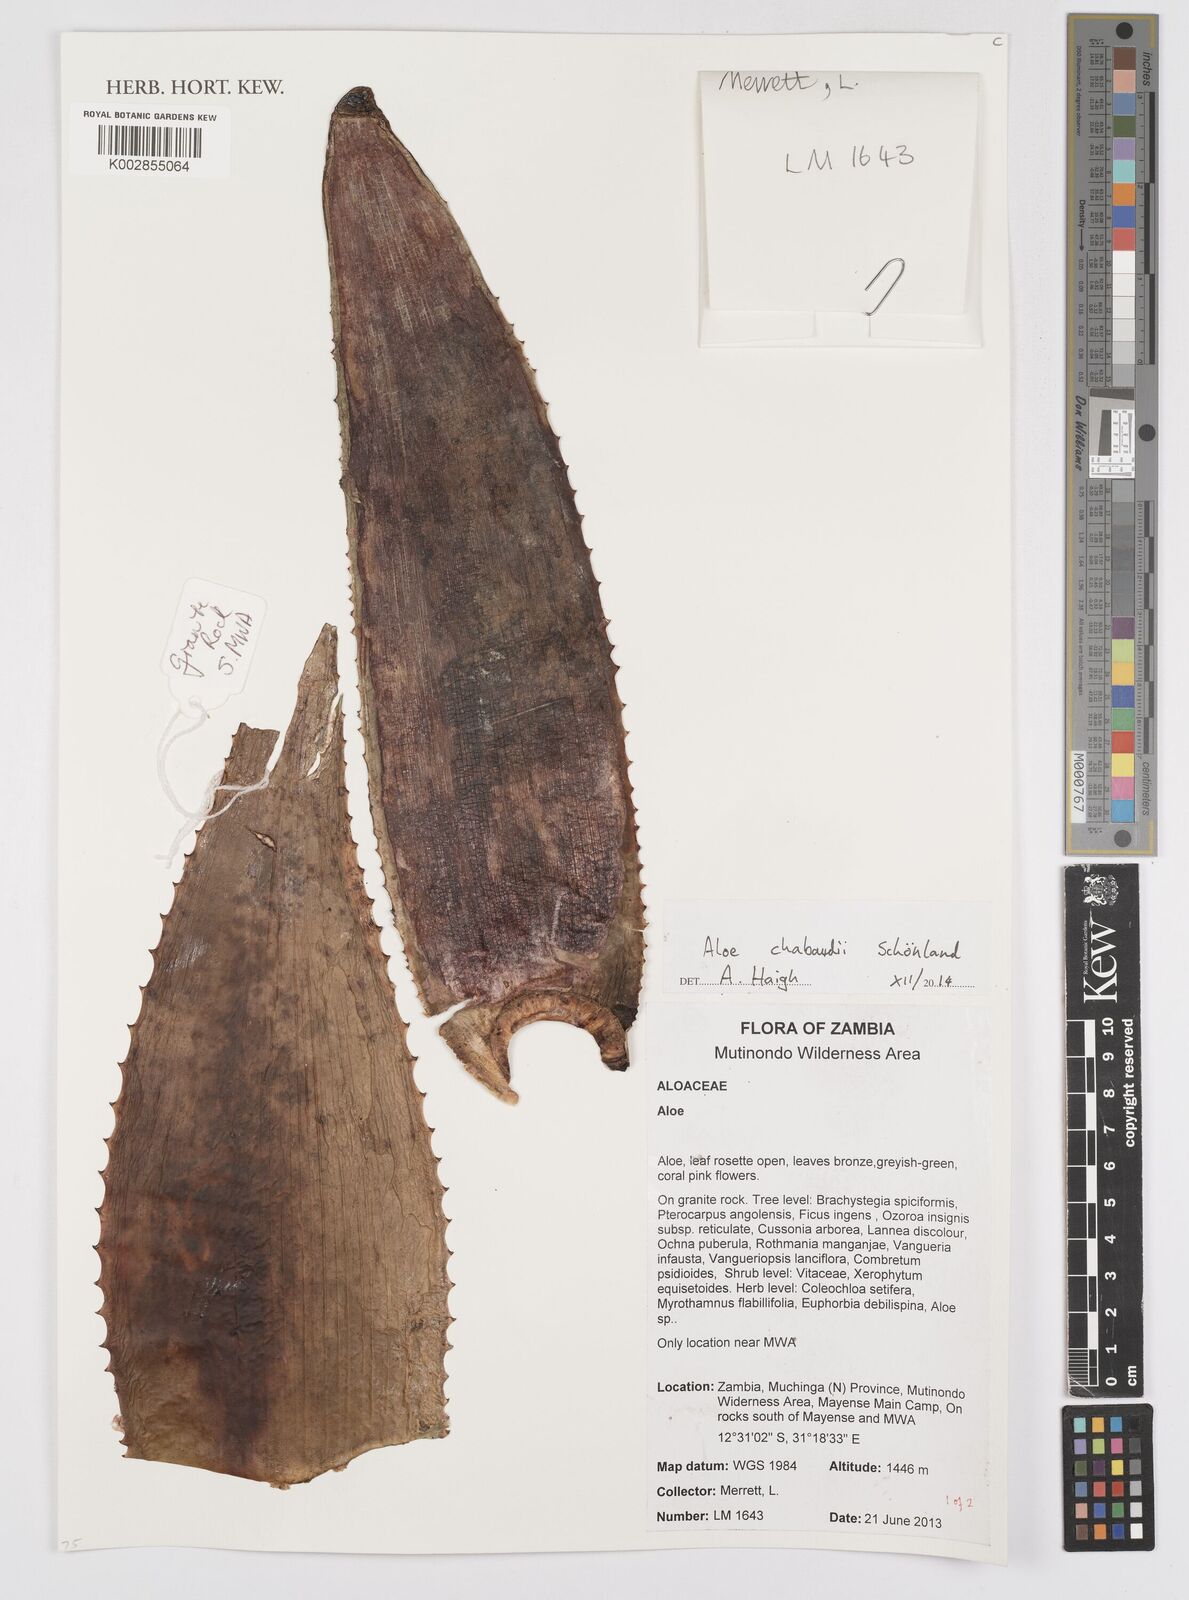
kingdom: Plantae
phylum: Tracheophyta
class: Liliopsida
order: Asparagales
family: Asphodelaceae
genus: Aloe
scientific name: Aloe chabaudii
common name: Chabaud's aloe
